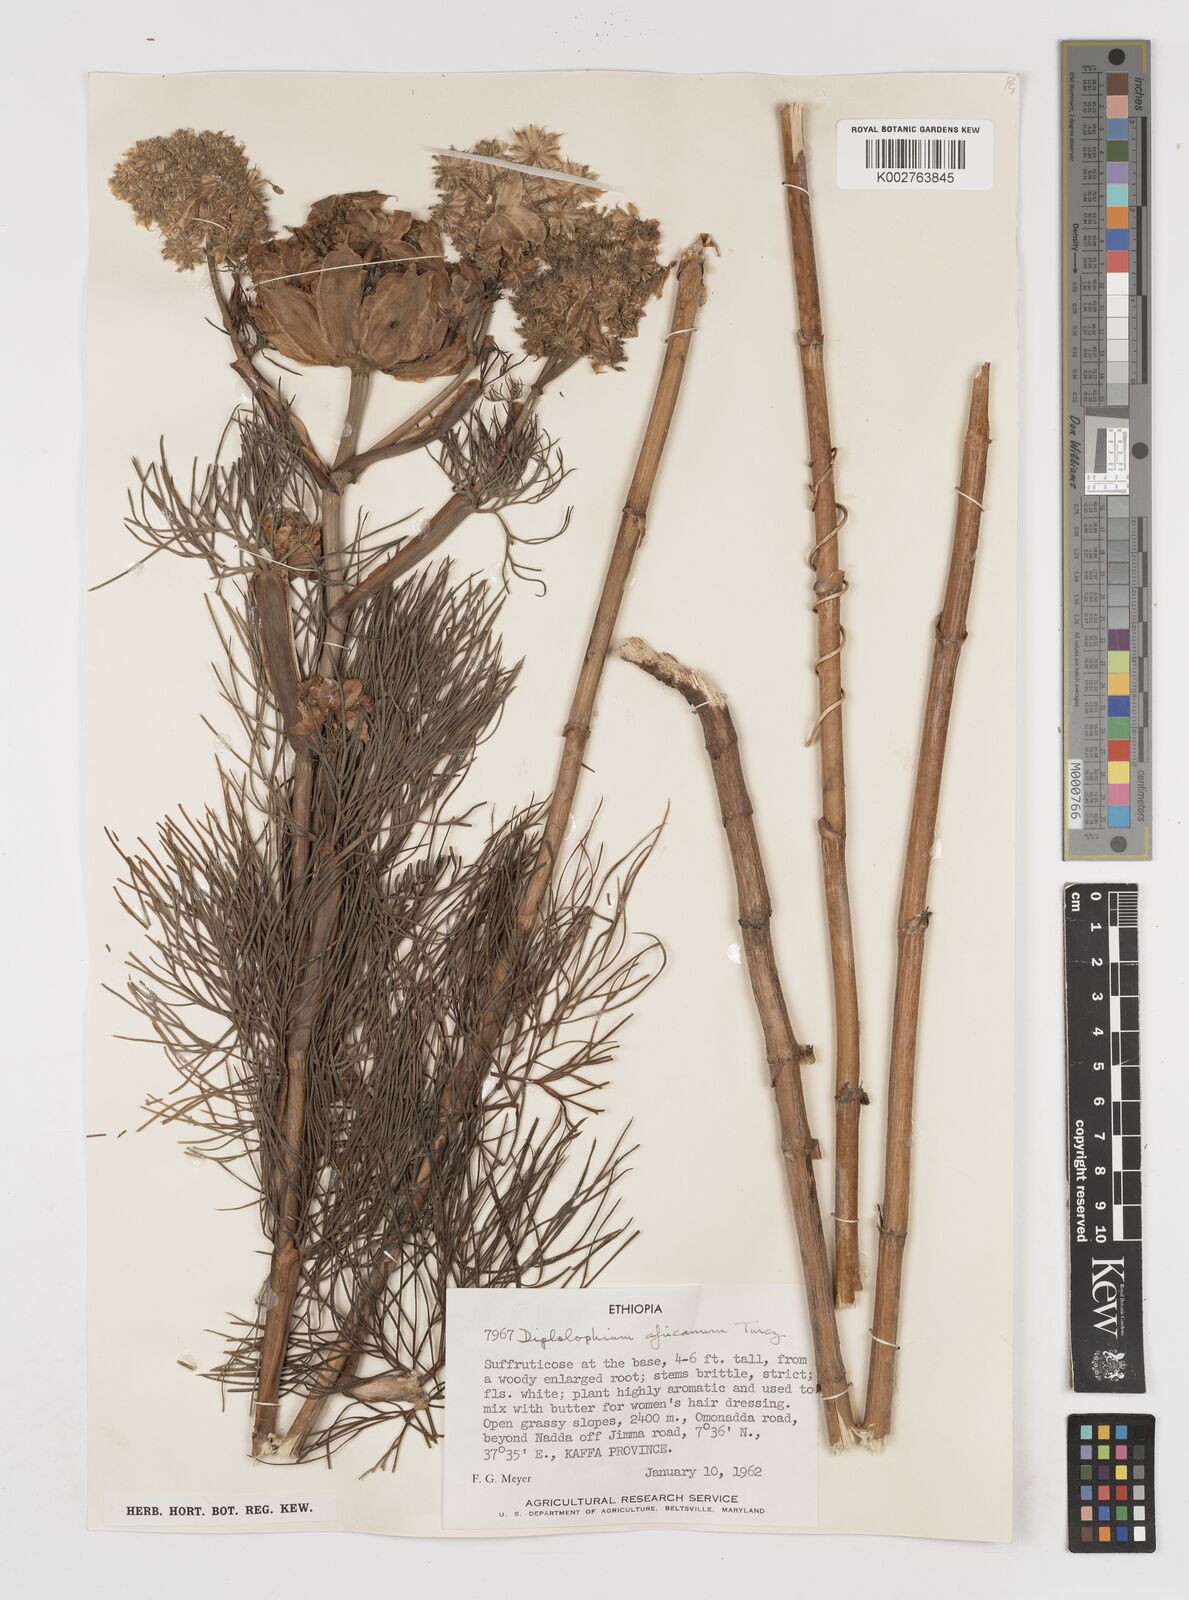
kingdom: Plantae
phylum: Tracheophyta
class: Magnoliopsida
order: Apiales
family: Apiaceae
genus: Diplolophium
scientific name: Diplolophium africanum
